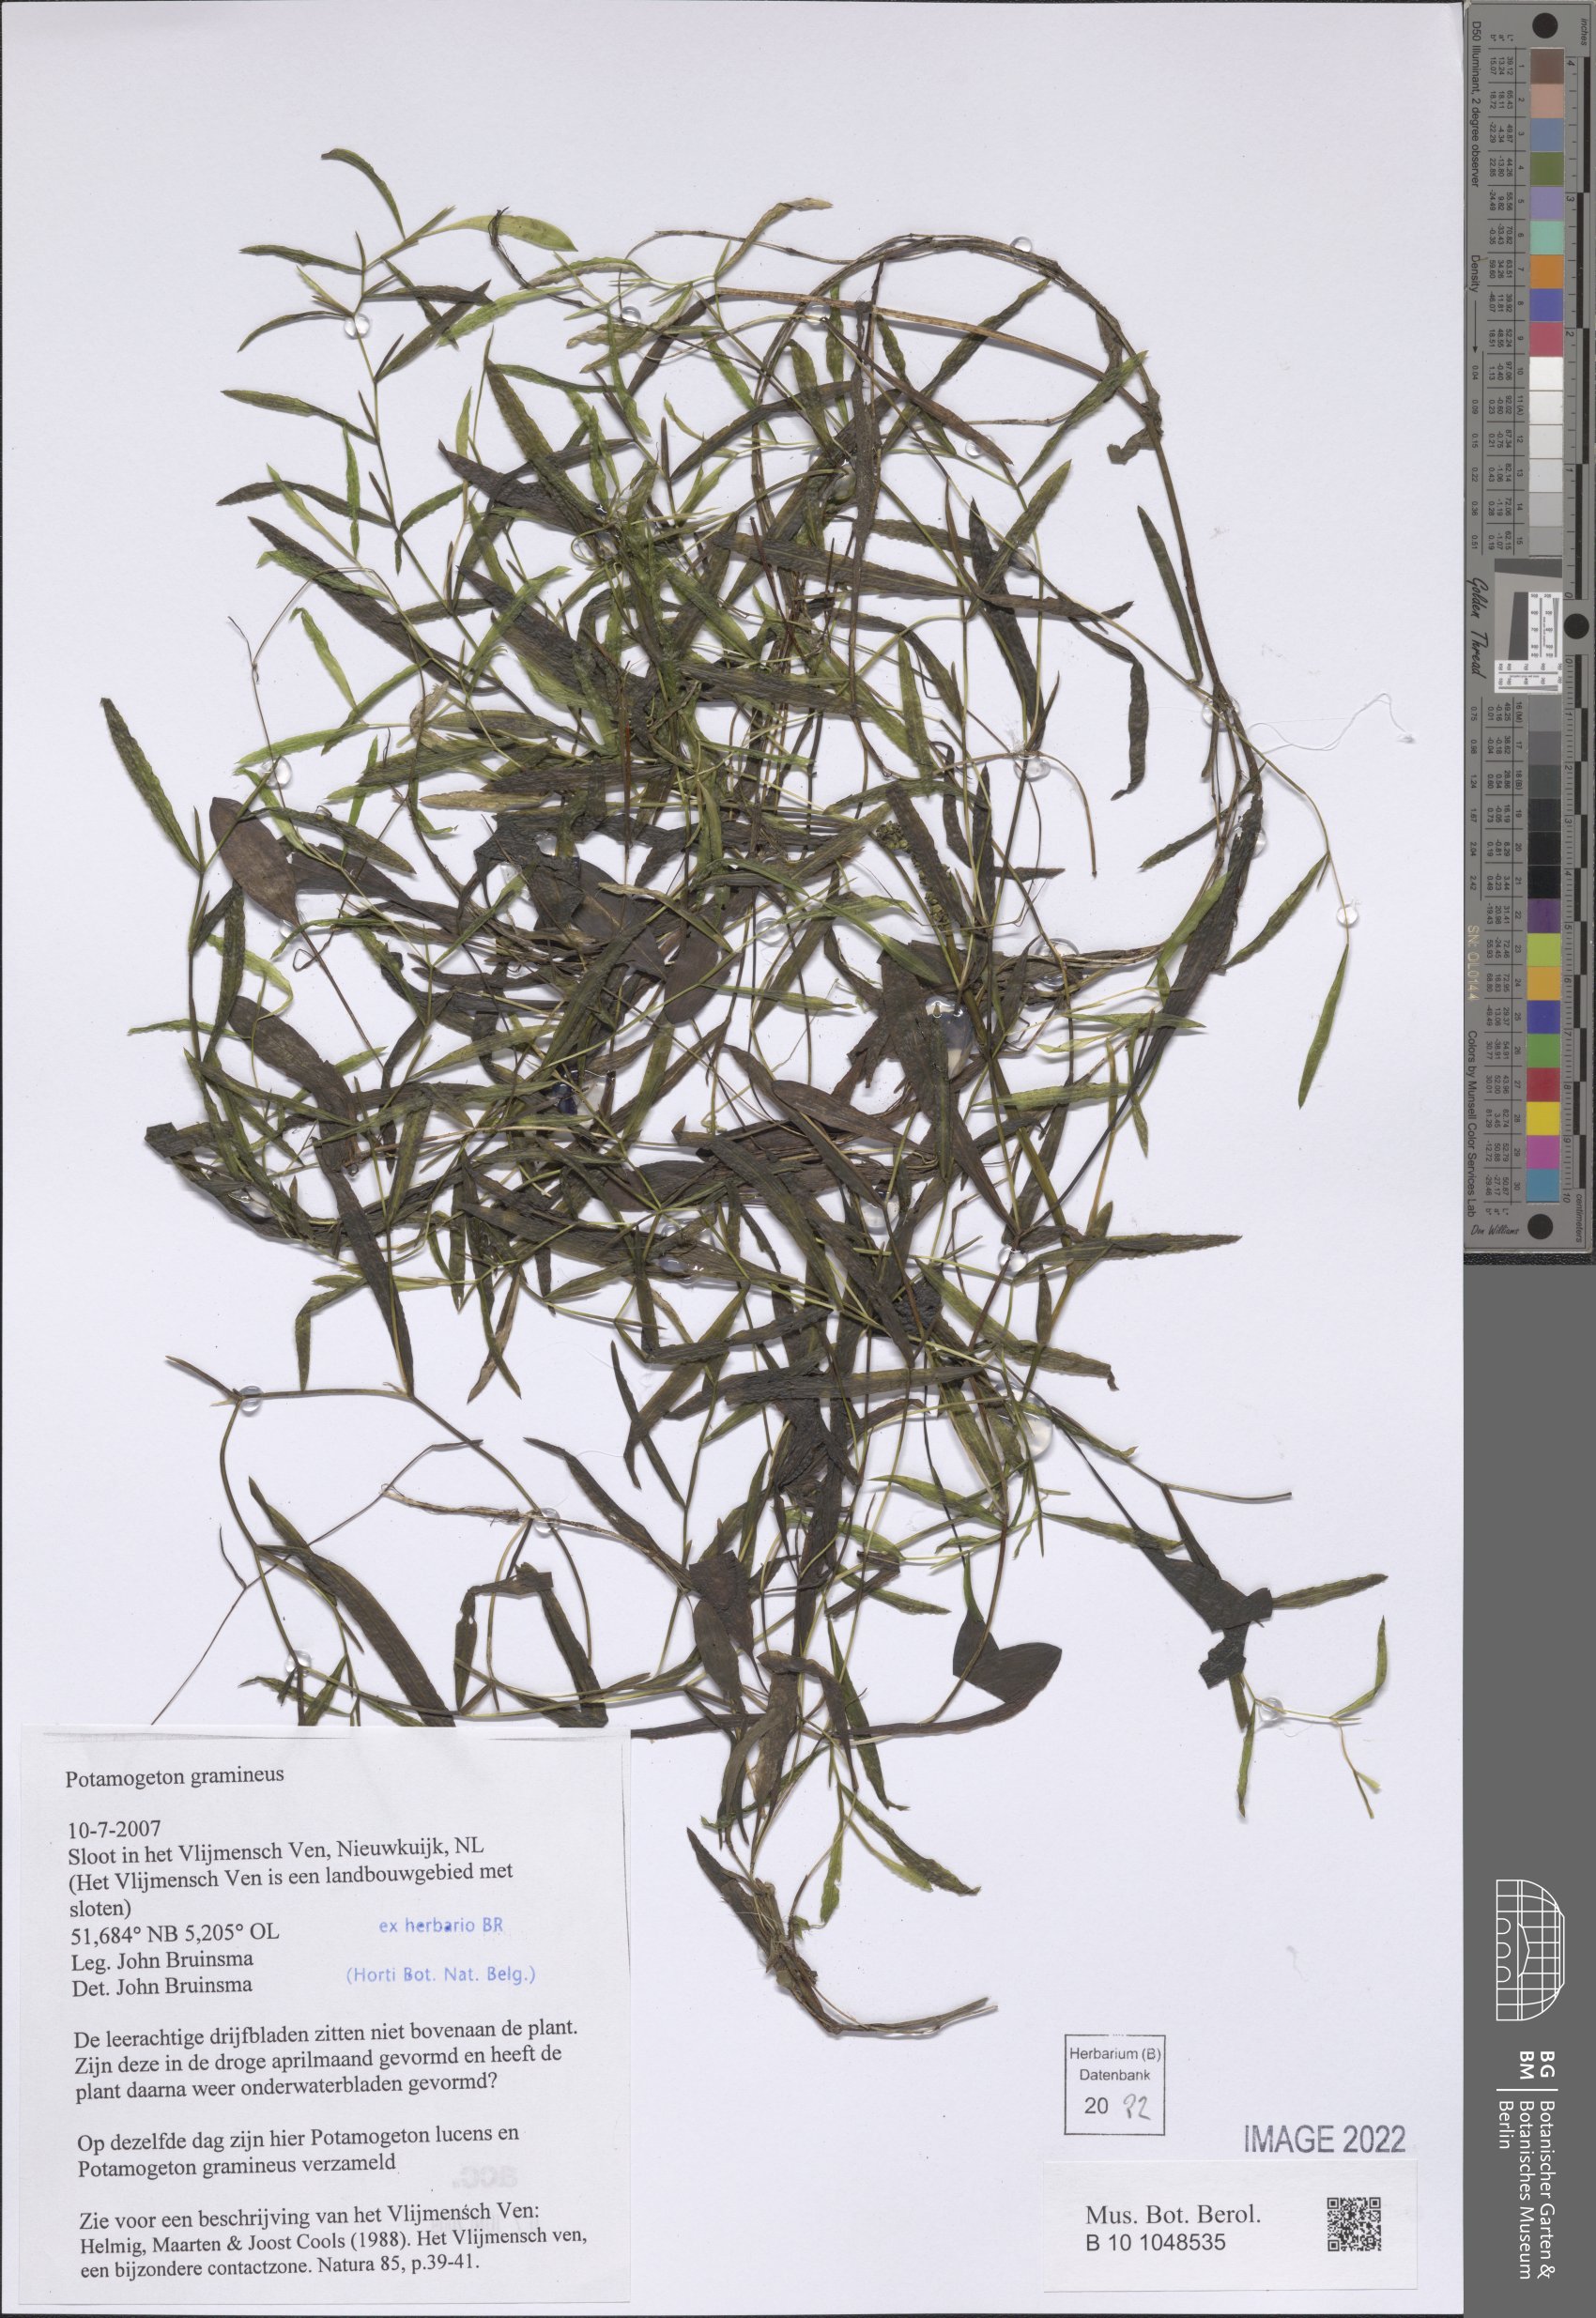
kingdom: Plantae
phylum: Tracheophyta
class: Liliopsida
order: Alismatales
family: Potamogetonaceae
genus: Potamogeton
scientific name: Potamogeton gramineus
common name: Various-leaved pondweed
